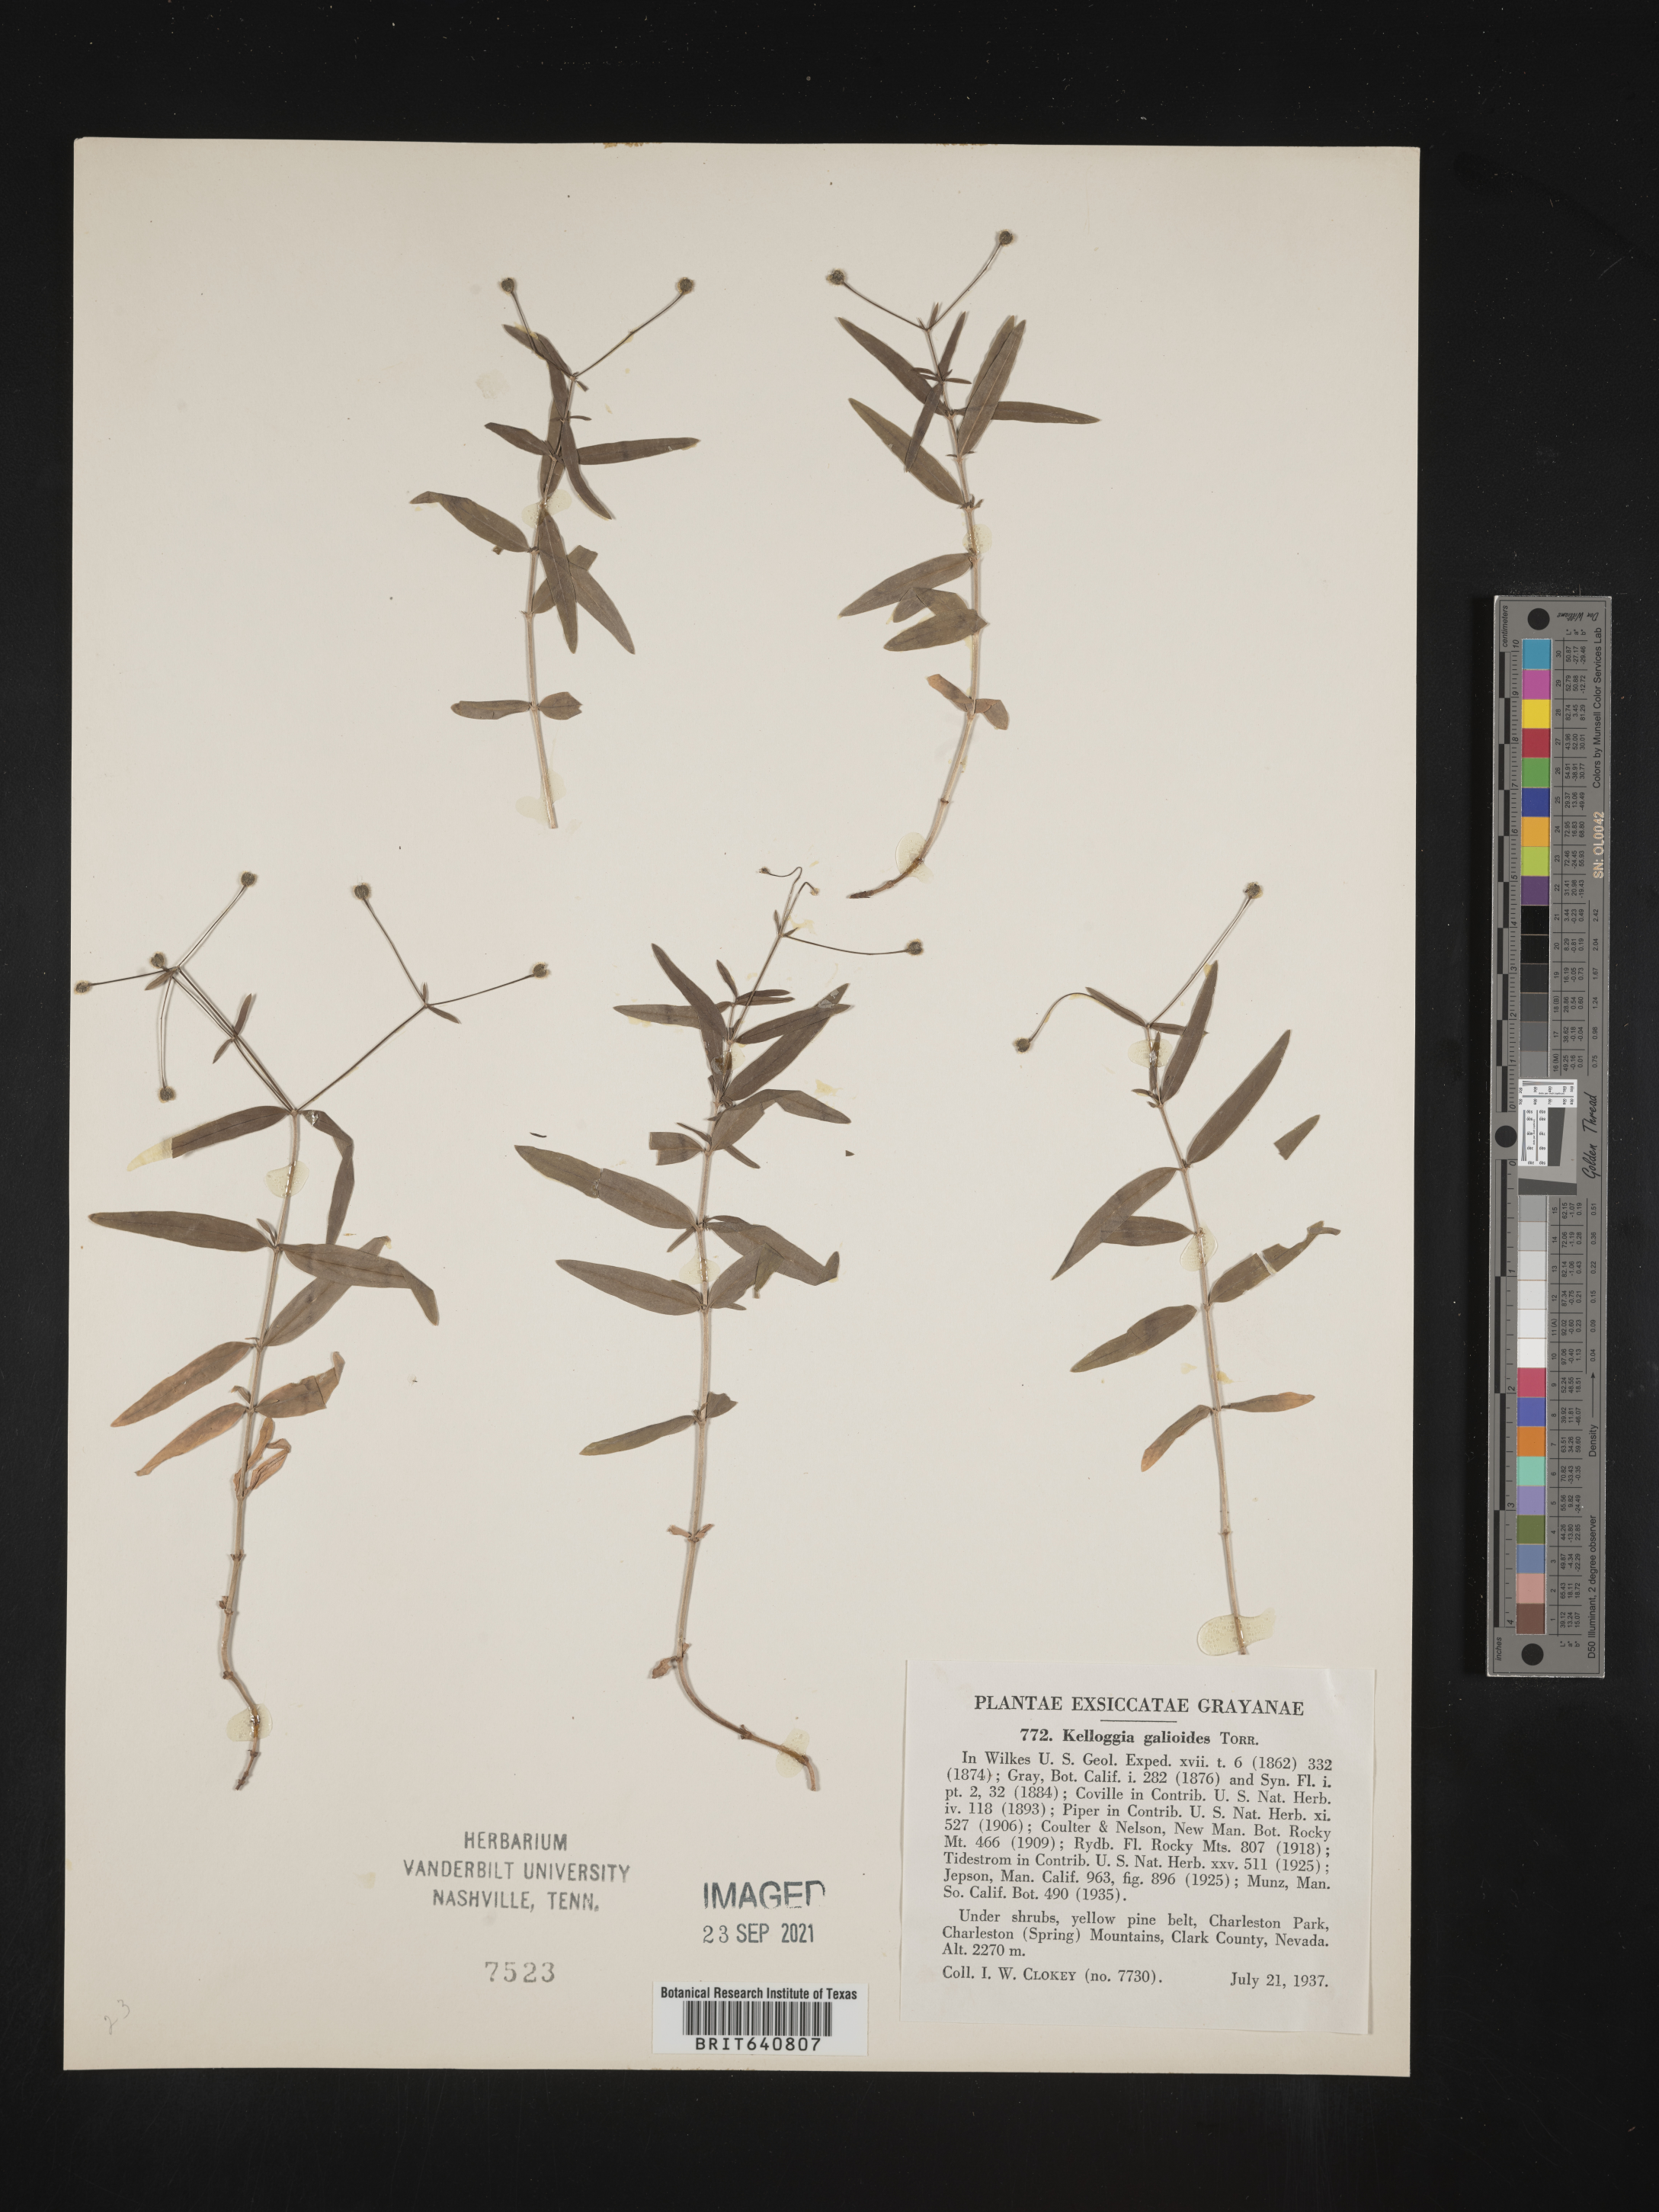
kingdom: Plantae
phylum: Tracheophyta
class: Magnoliopsida
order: Gentianales
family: Rubiaceae
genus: Kelloggia
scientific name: Kelloggia galioides
